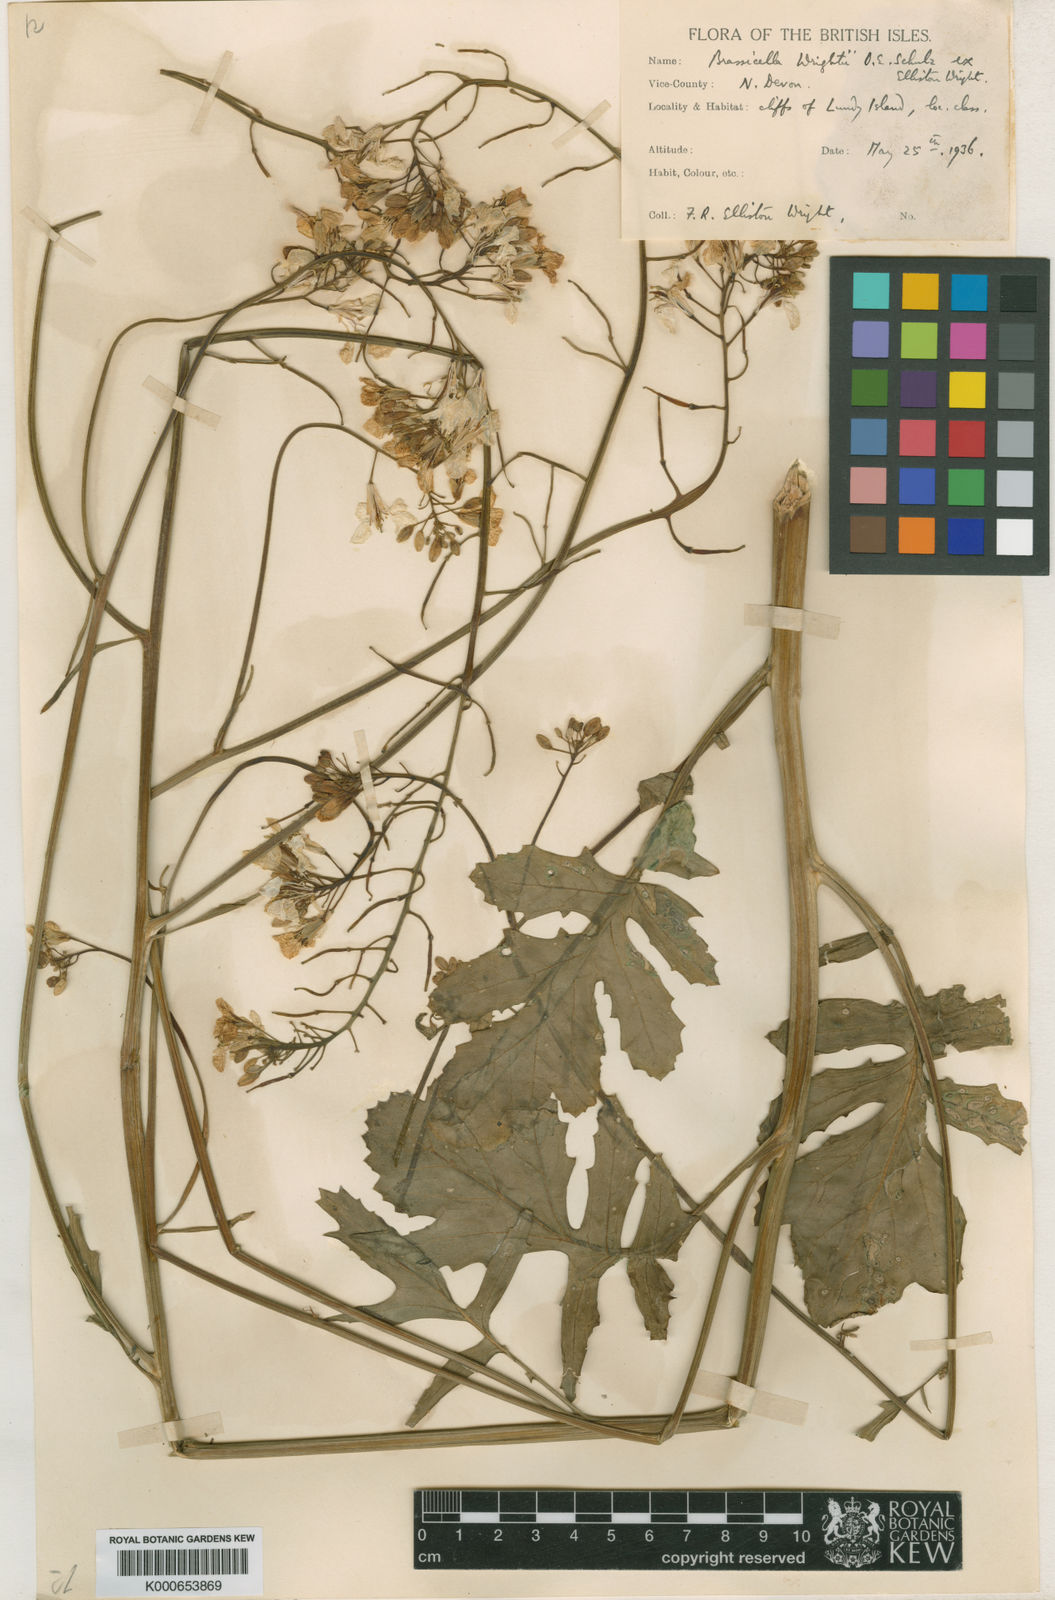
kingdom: Plantae
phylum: Tracheophyta
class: Magnoliopsida
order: Brassicales
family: Brassicaceae
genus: Coincya
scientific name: Coincya wrightii
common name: Lundy cabbage
